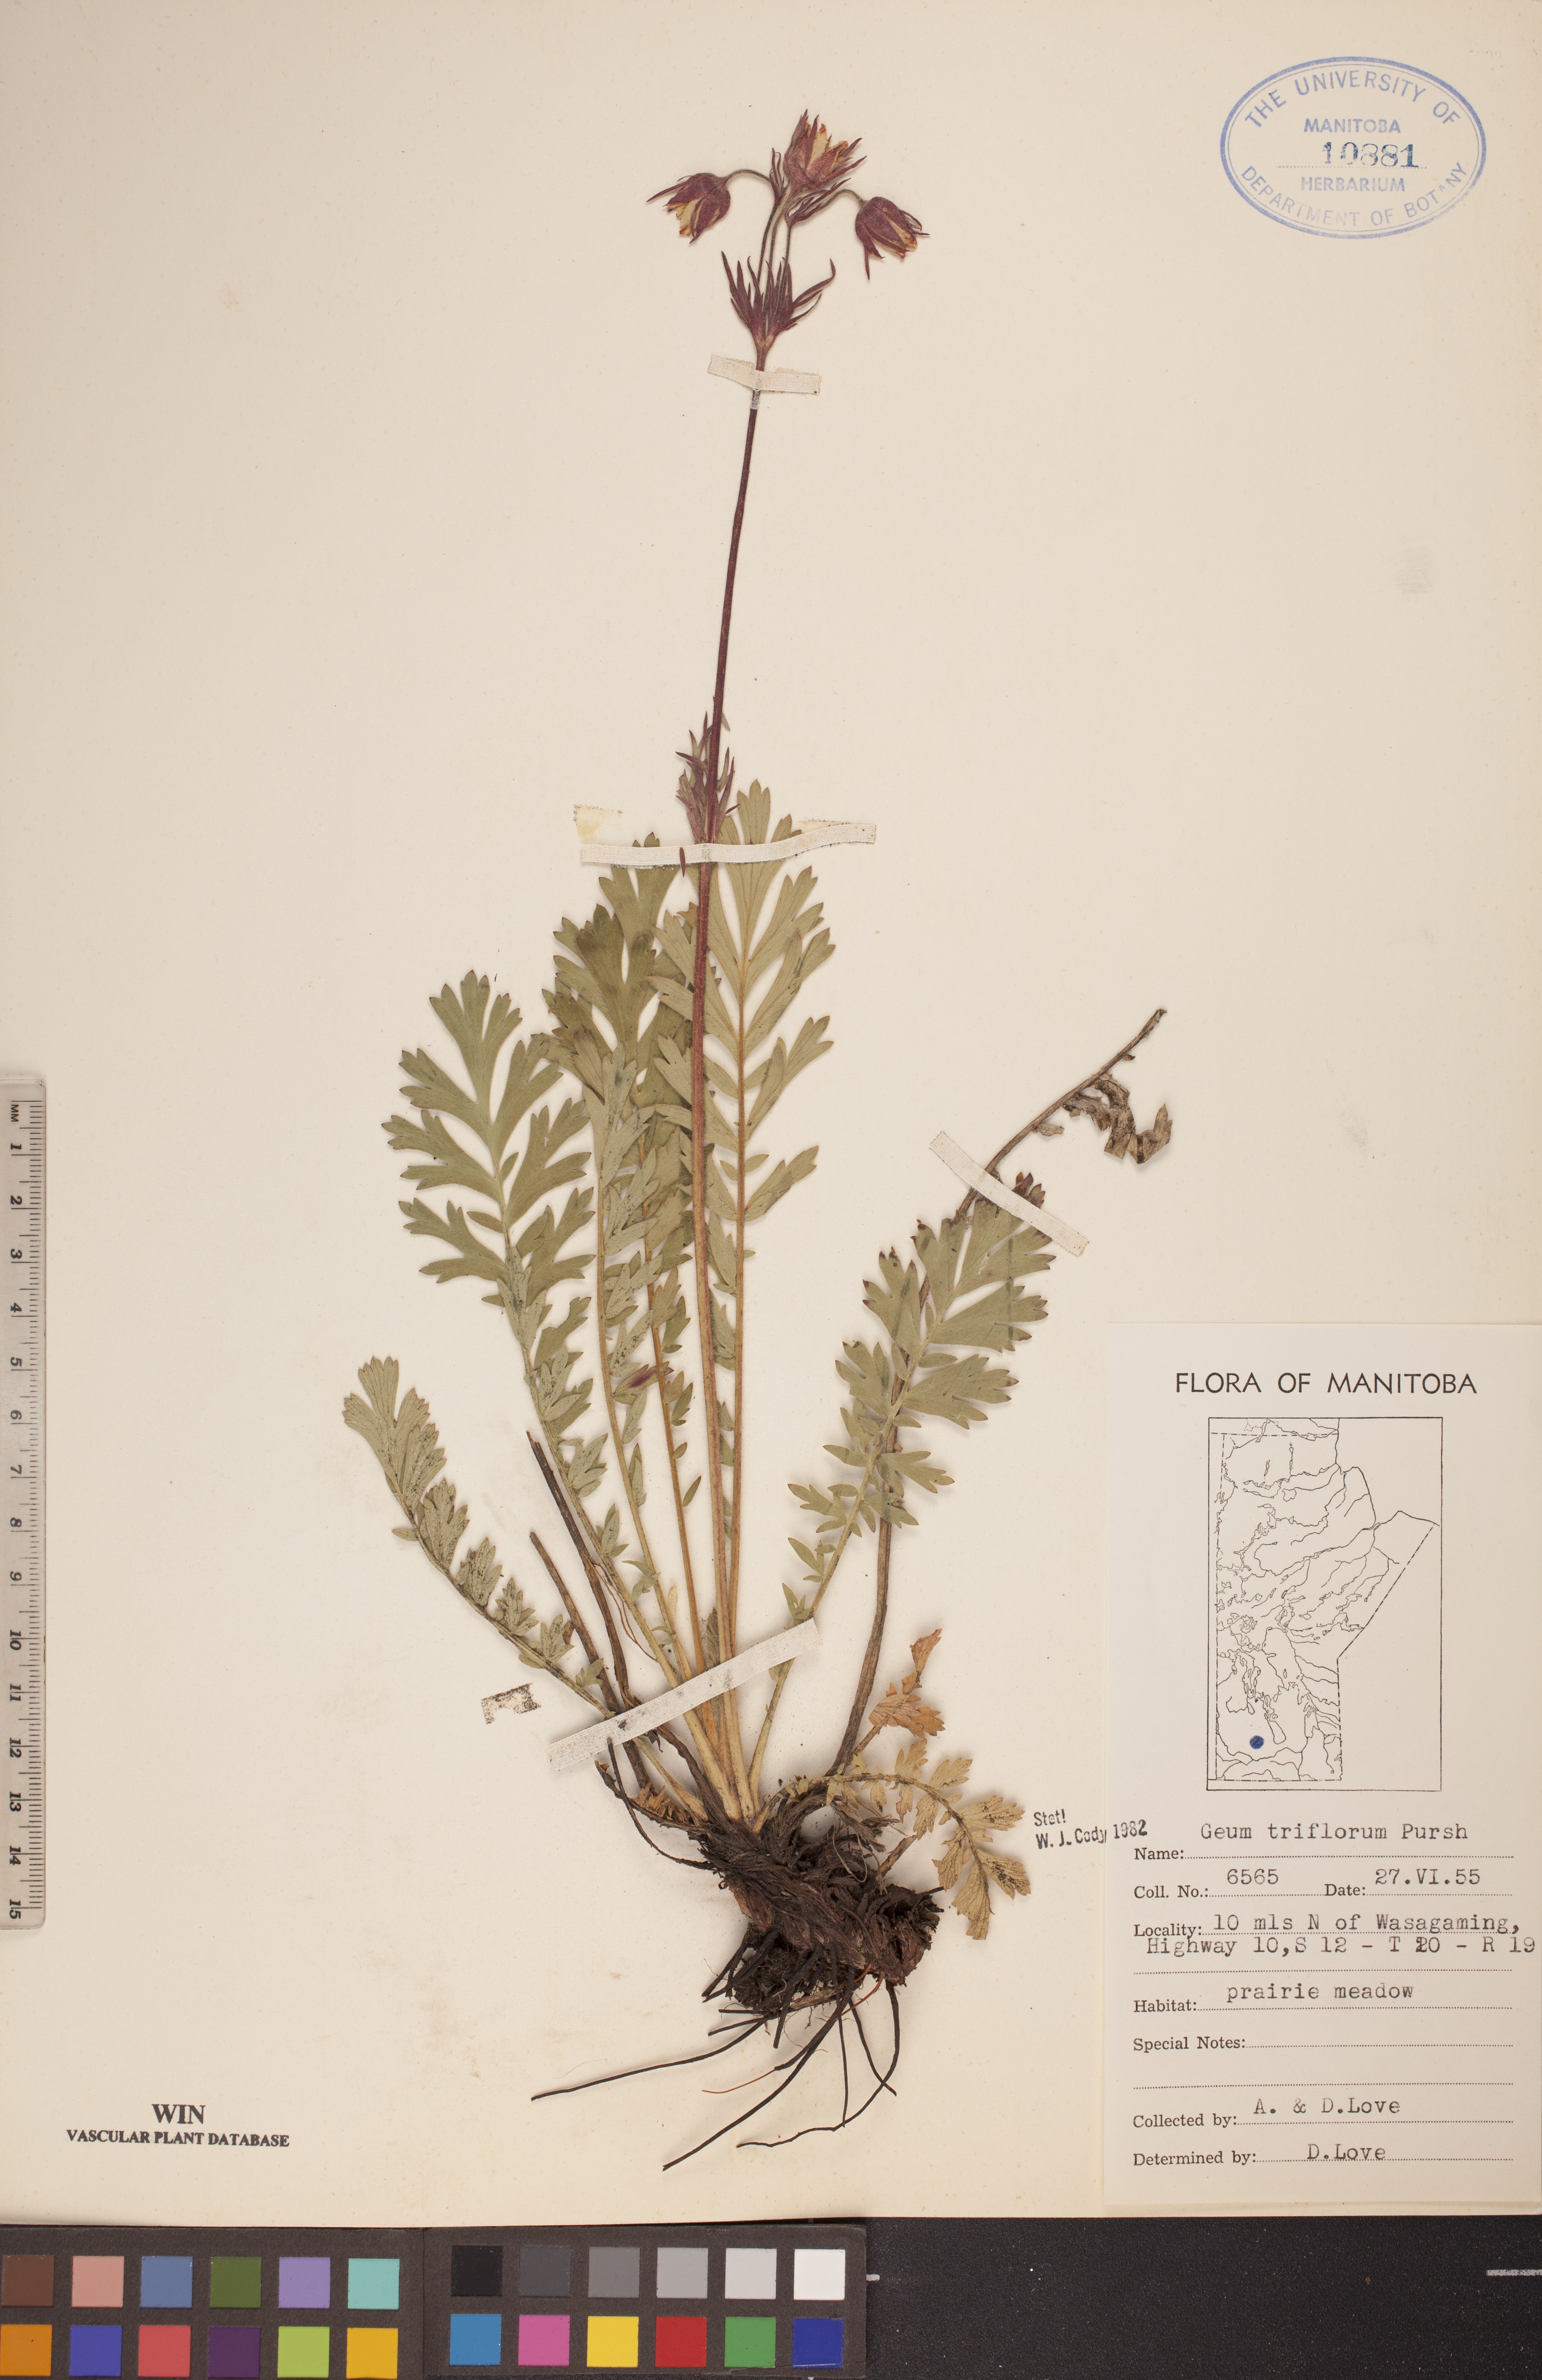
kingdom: Plantae
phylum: Tracheophyta
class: Magnoliopsida
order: Rosales
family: Rosaceae
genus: Geum
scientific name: Geum triflorum
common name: Old man's whiskers
